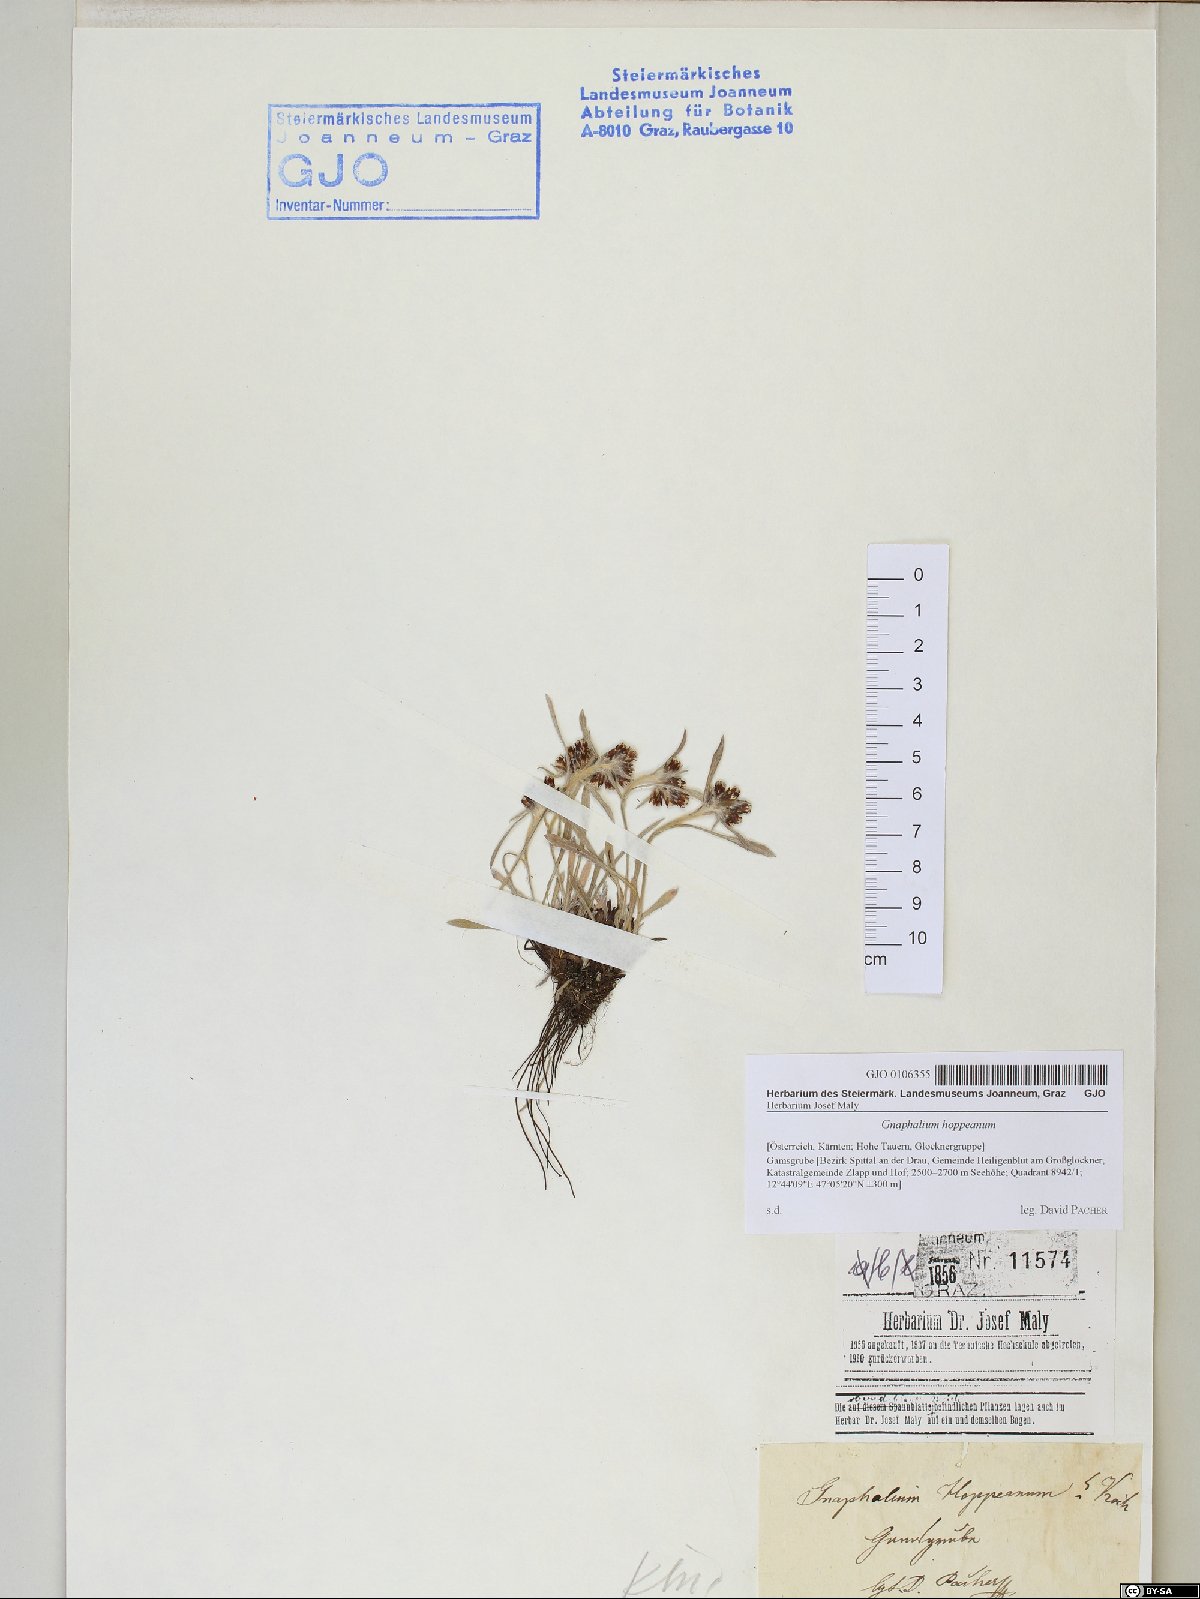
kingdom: Plantae
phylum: Tracheophyta
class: Magnoliopsida
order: Asterales
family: Asteraceae
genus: Omalotheca
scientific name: Omalotheca hoppeana
